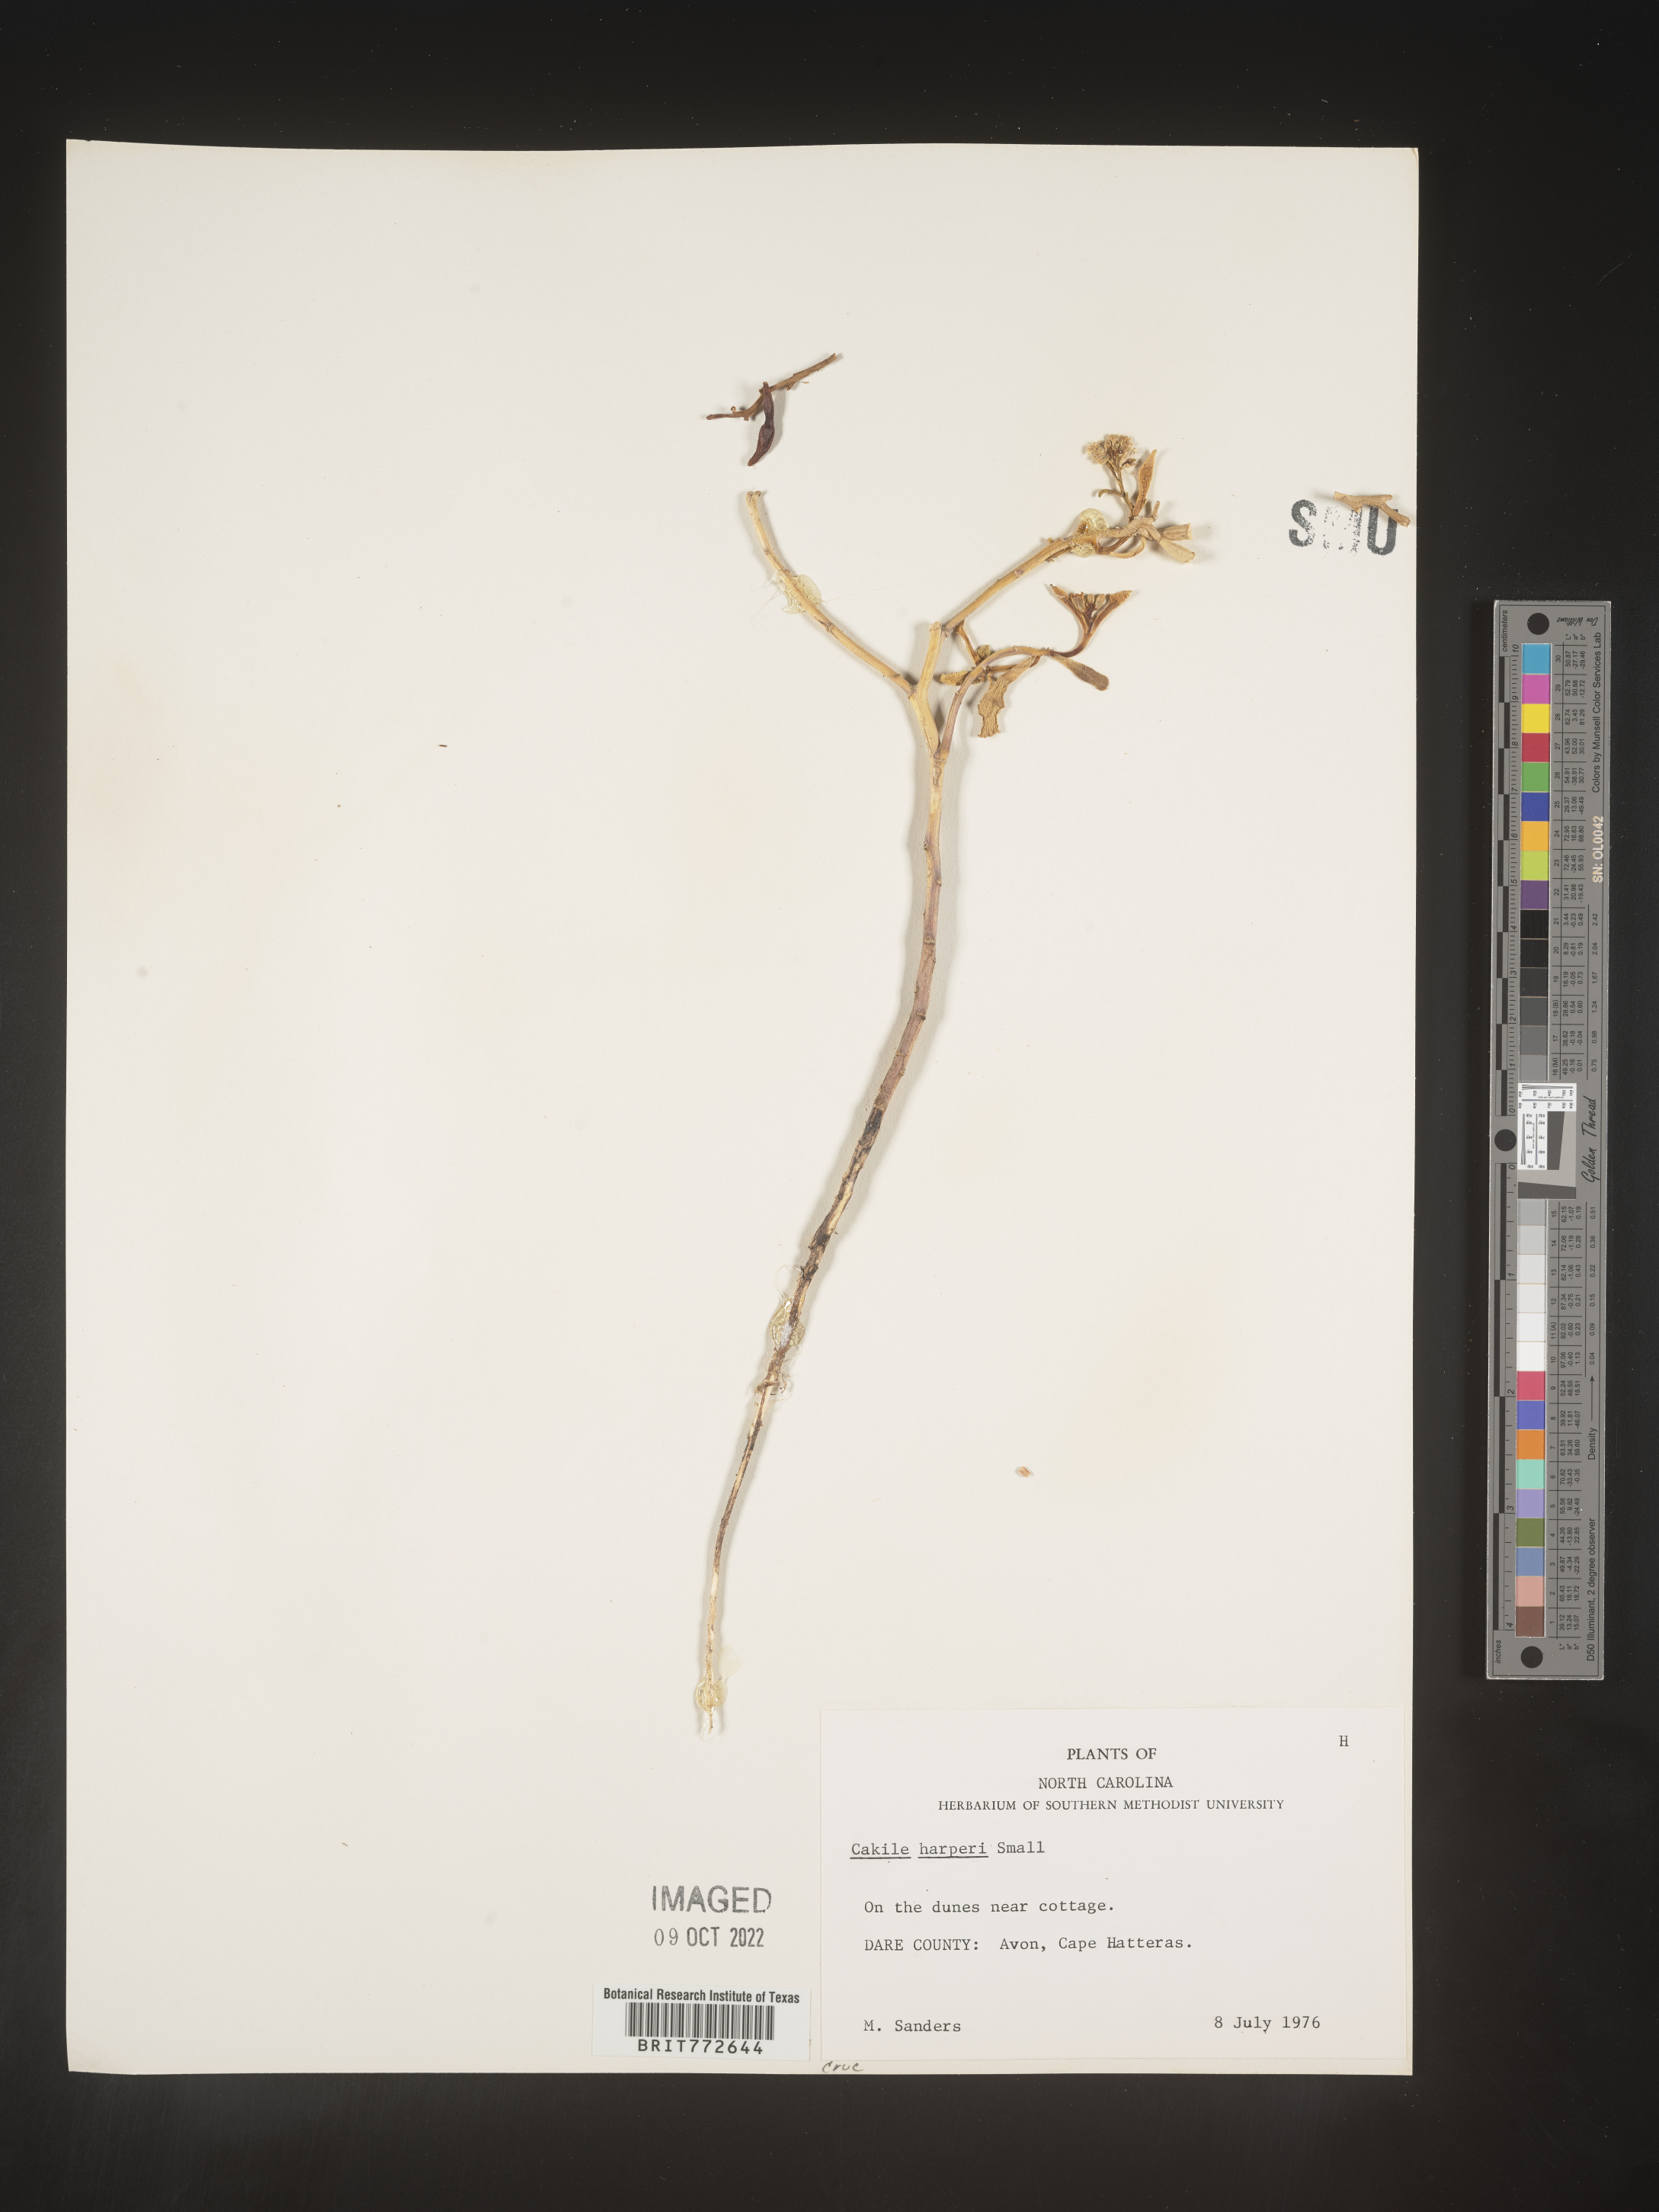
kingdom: Plantae
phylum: Tracheophyta
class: Magnoliopsida
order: Brassicales
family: Brassicaceae
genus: Cakile
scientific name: Cakile edentula
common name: American sea rocket
